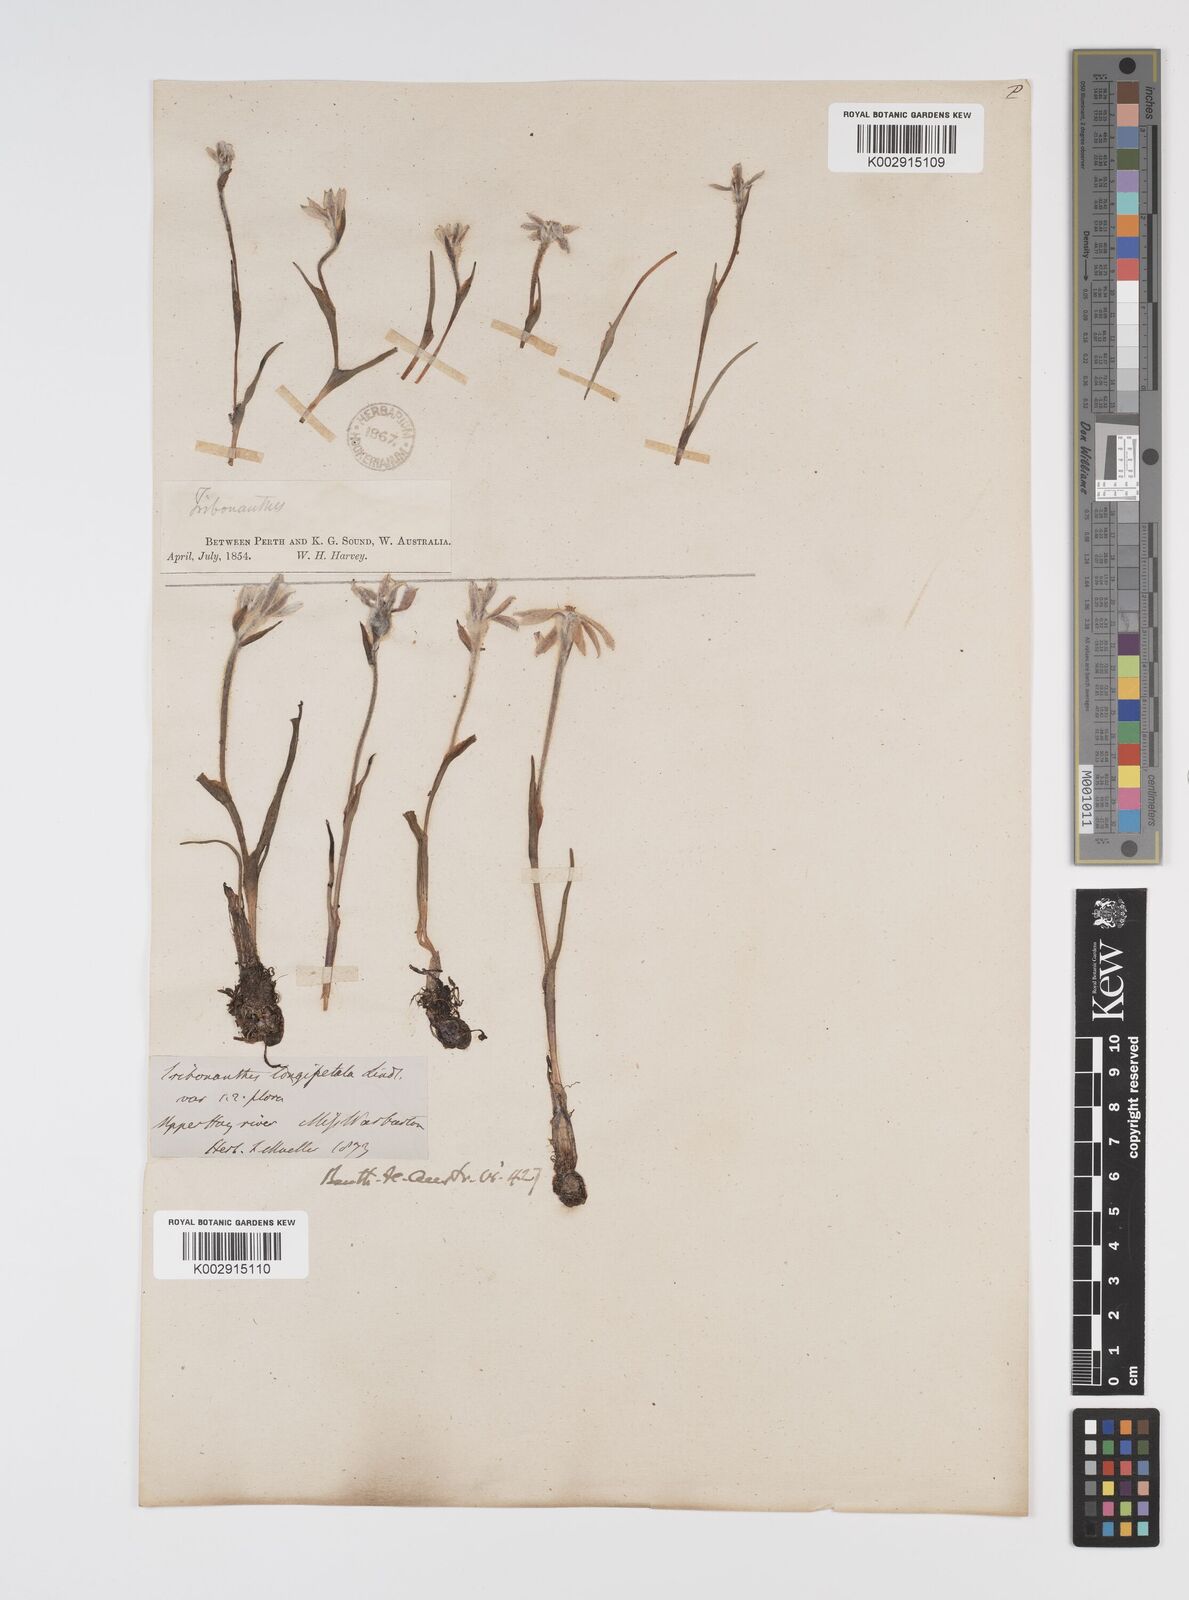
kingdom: Plantae
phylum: Tracheophyta
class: Liliopsida
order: Commelinales
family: Haemodoraceae
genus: Tribonanthes
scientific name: Tribonanthes longipetala
